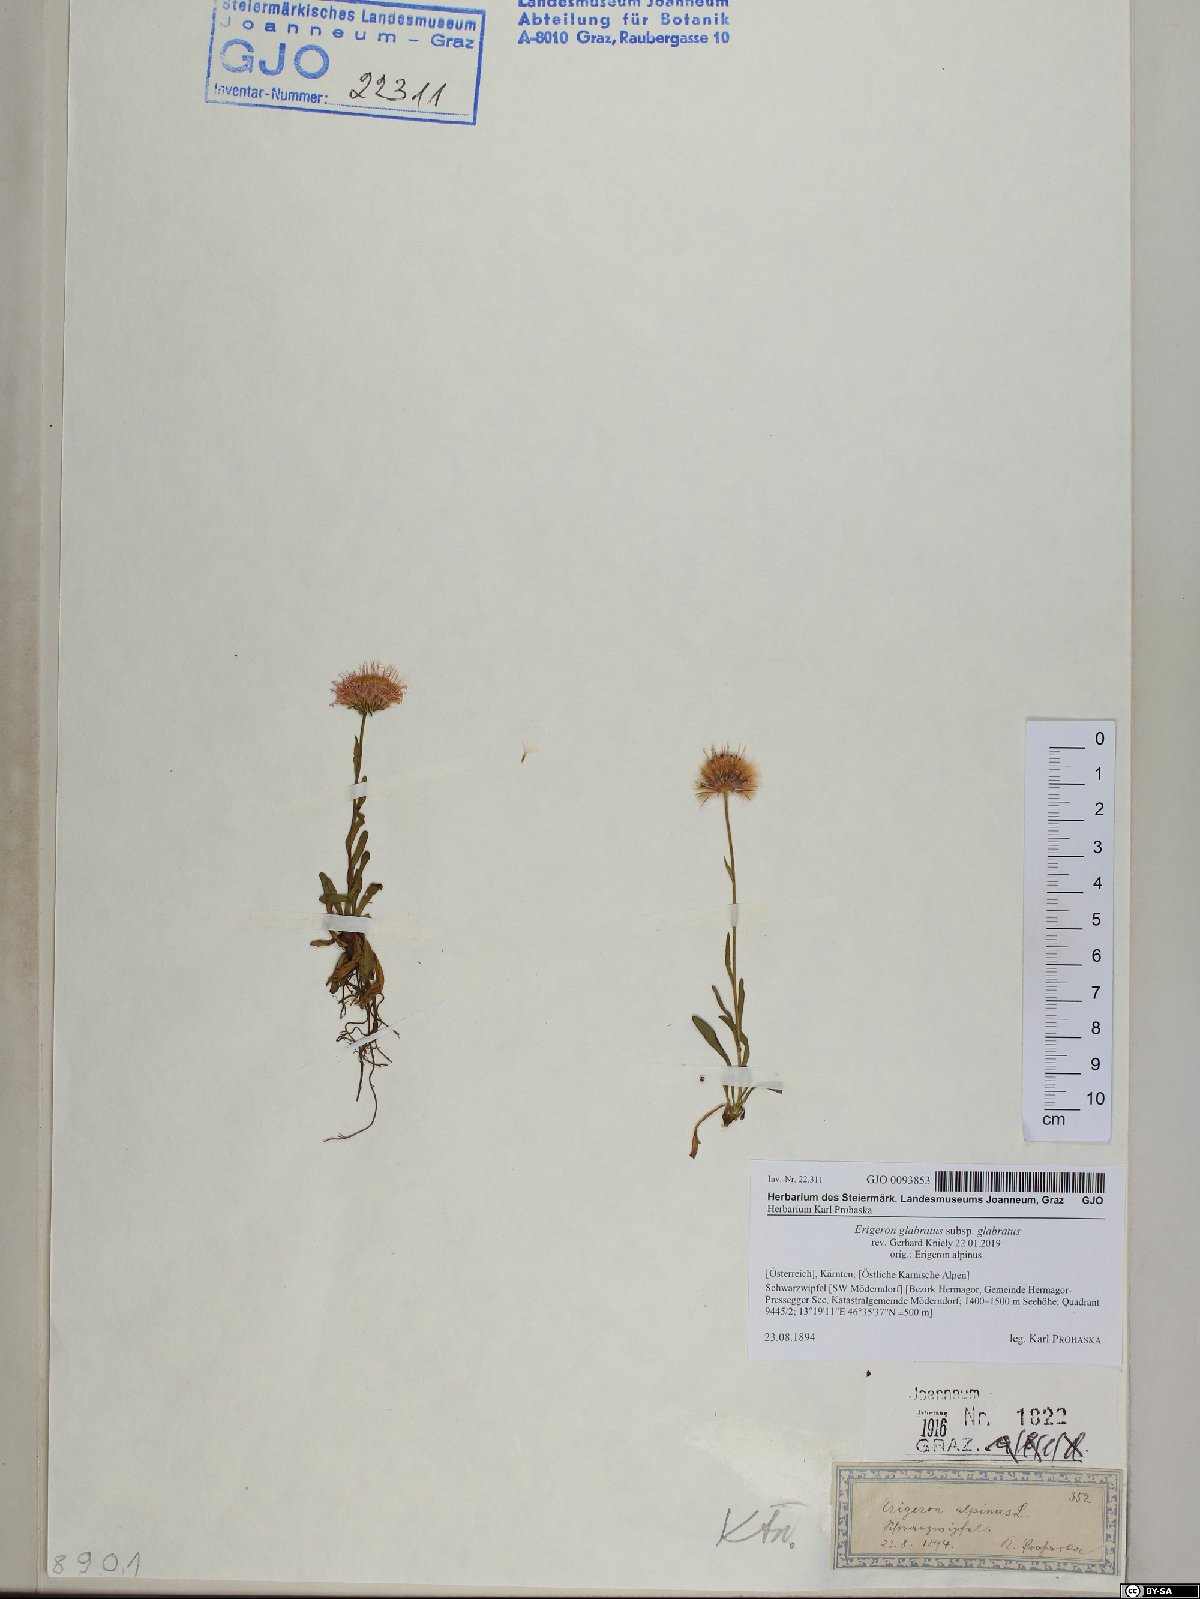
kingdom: Plantae
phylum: Tracheophyta
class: Magnoliopsida
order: Asterales
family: Asteraceae
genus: Erigeron
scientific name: Erigeron glabratus
